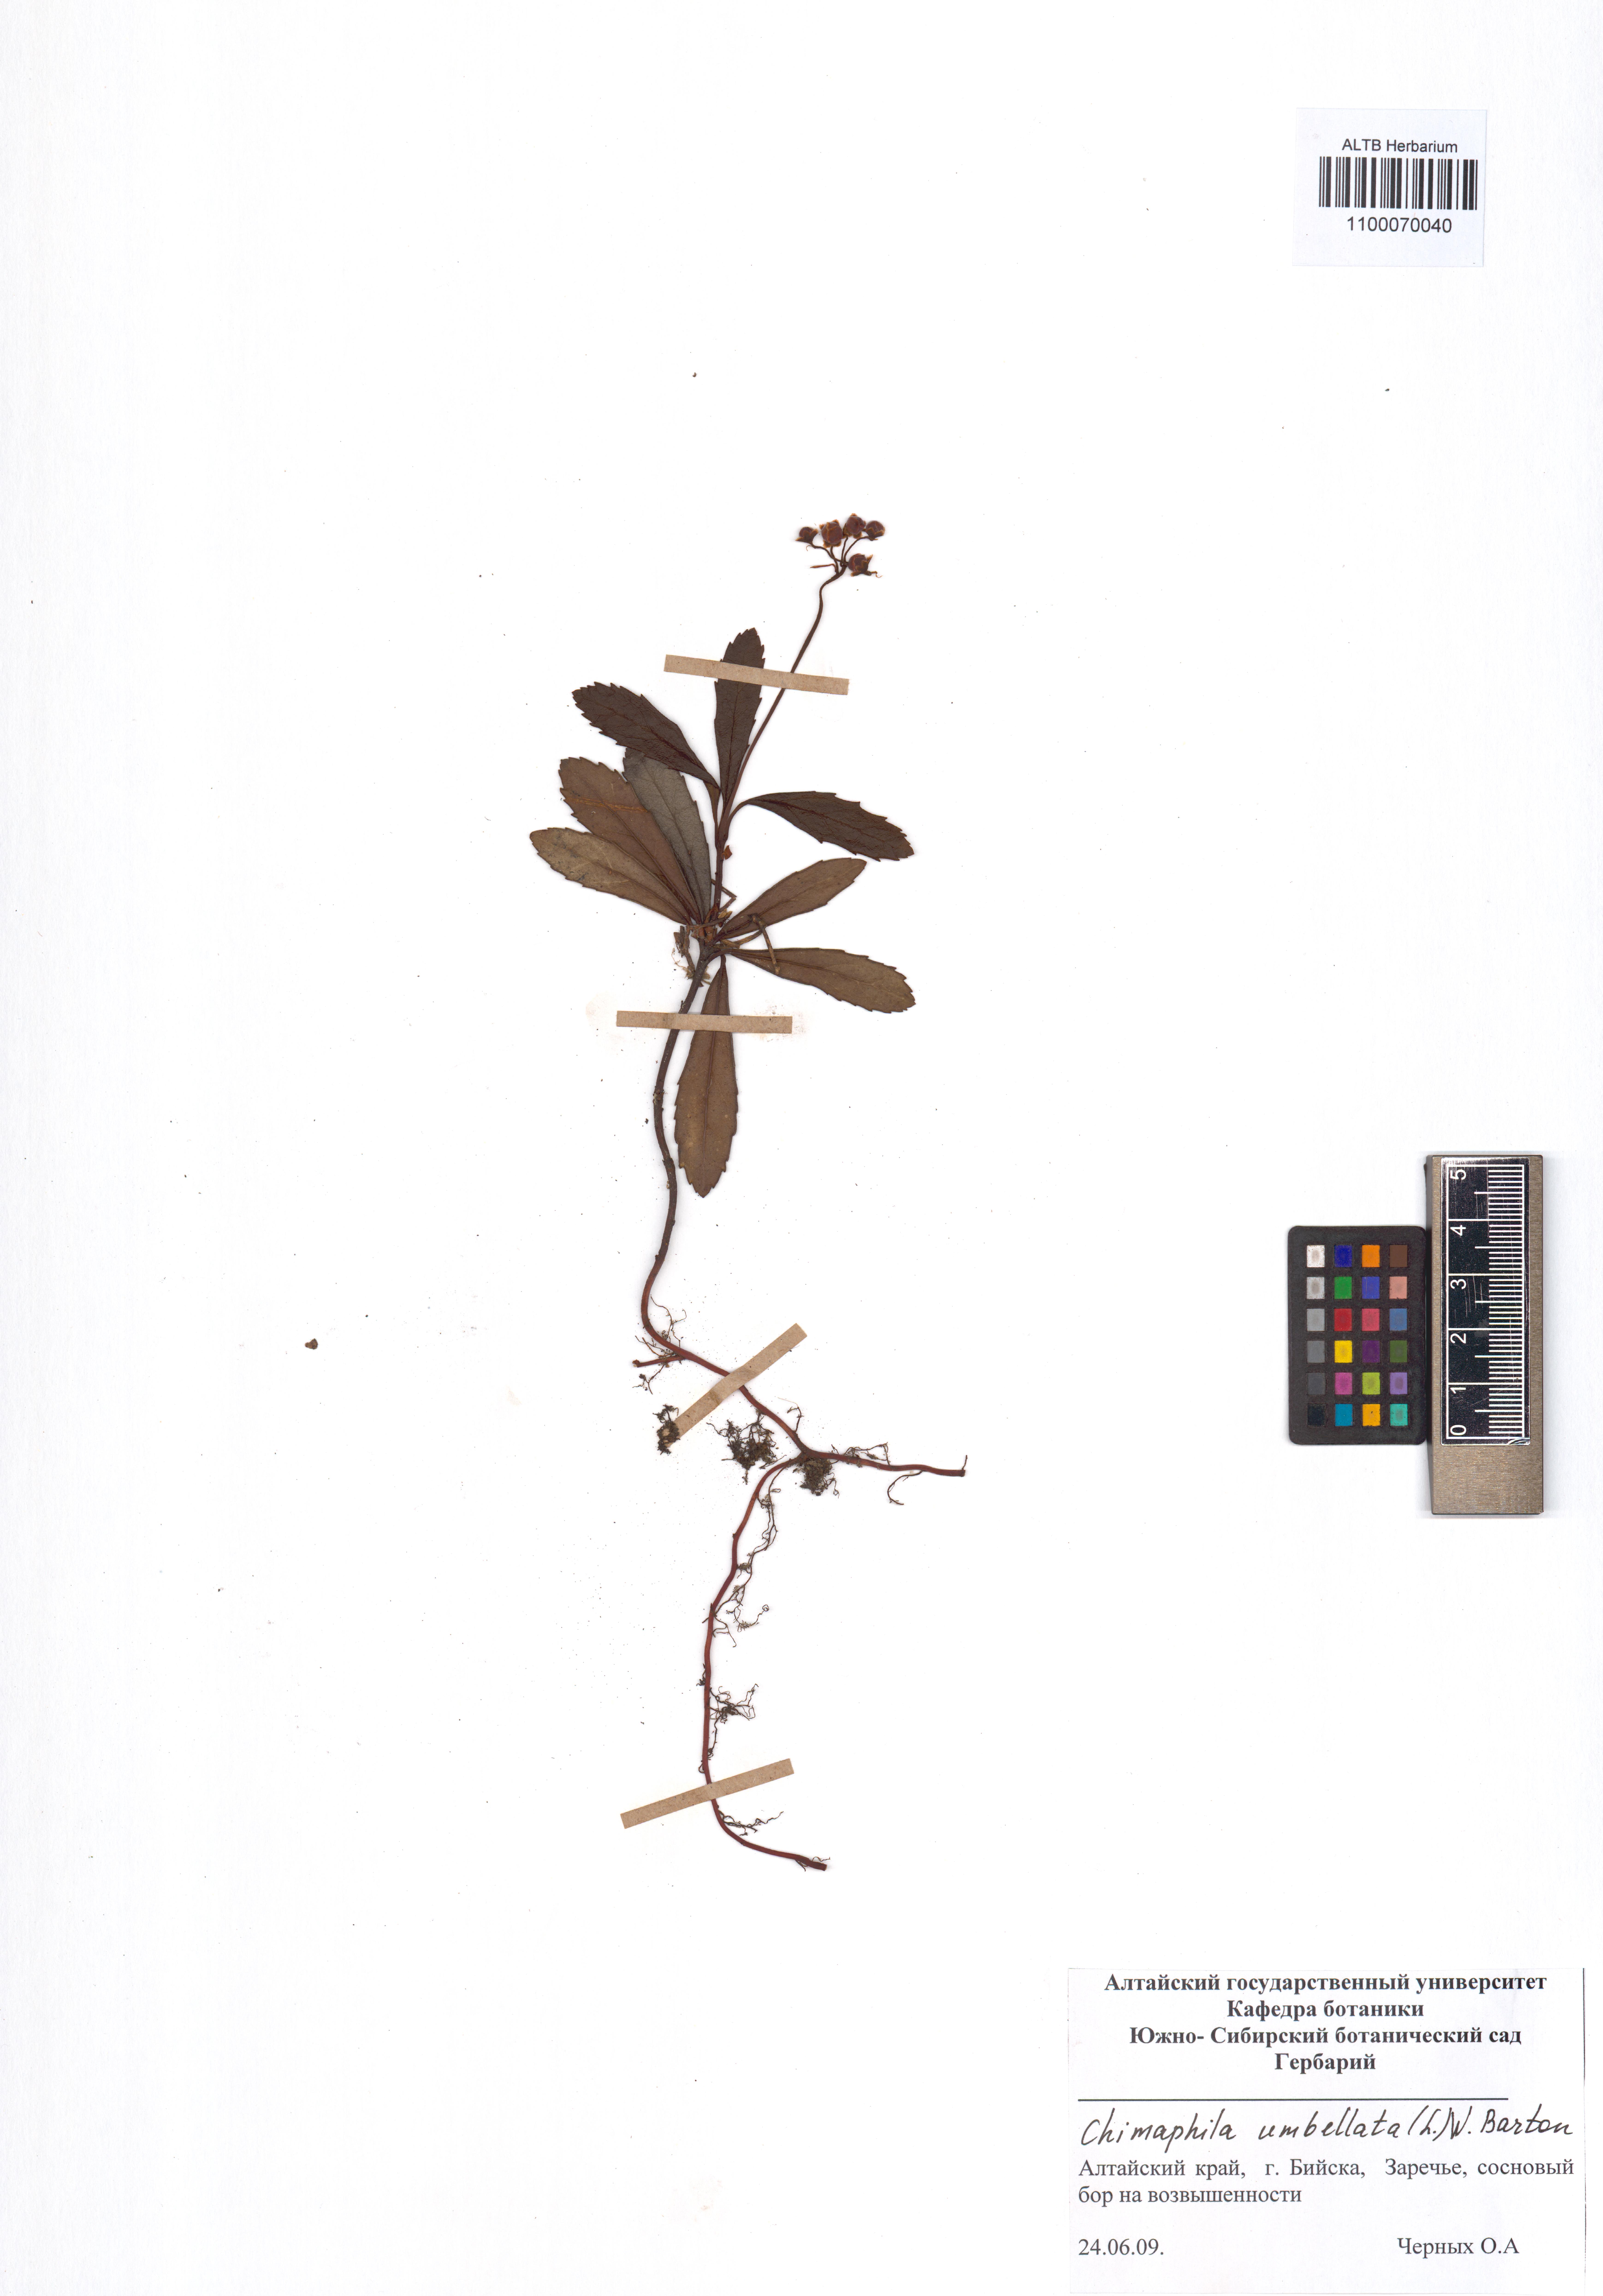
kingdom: Plantae
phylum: Tracheophyta
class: Magnoliopsida
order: Ericales
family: Ericaceae
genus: Chimaphila
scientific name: Chimaphila umbellata
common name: Pipsissewa
